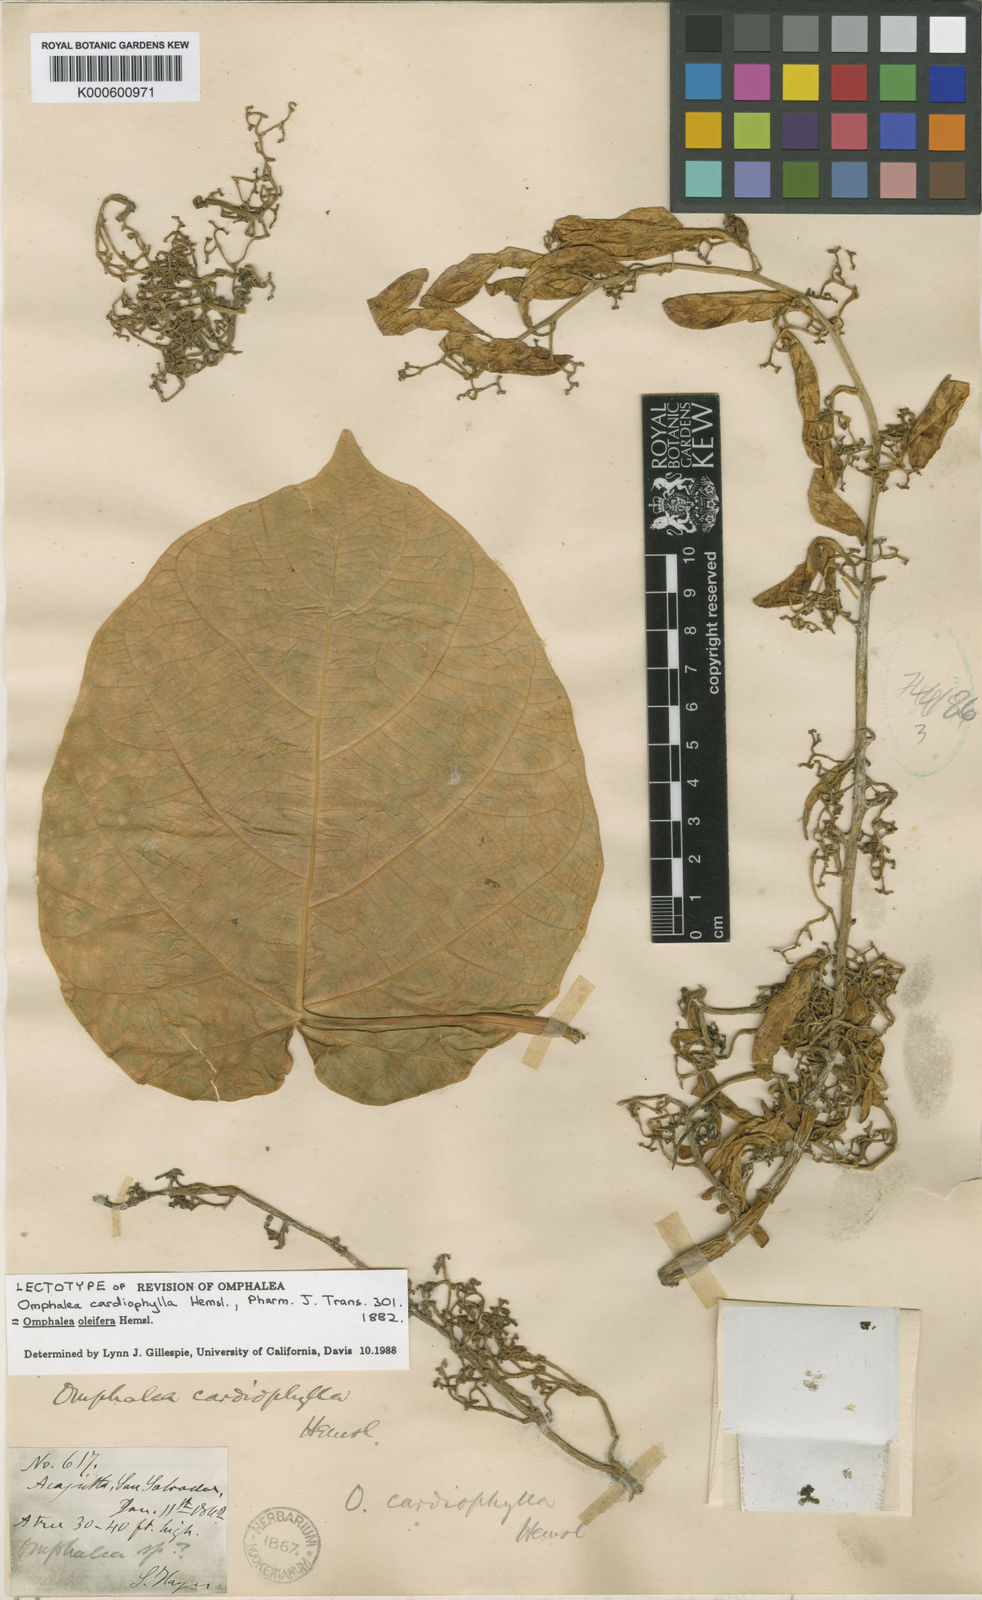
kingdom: Plantae
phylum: Tracheophyta
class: Magnoliopsida
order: Malpighiales
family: Euphorbiaceae
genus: Omphalea
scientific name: Omphalea oleifera
